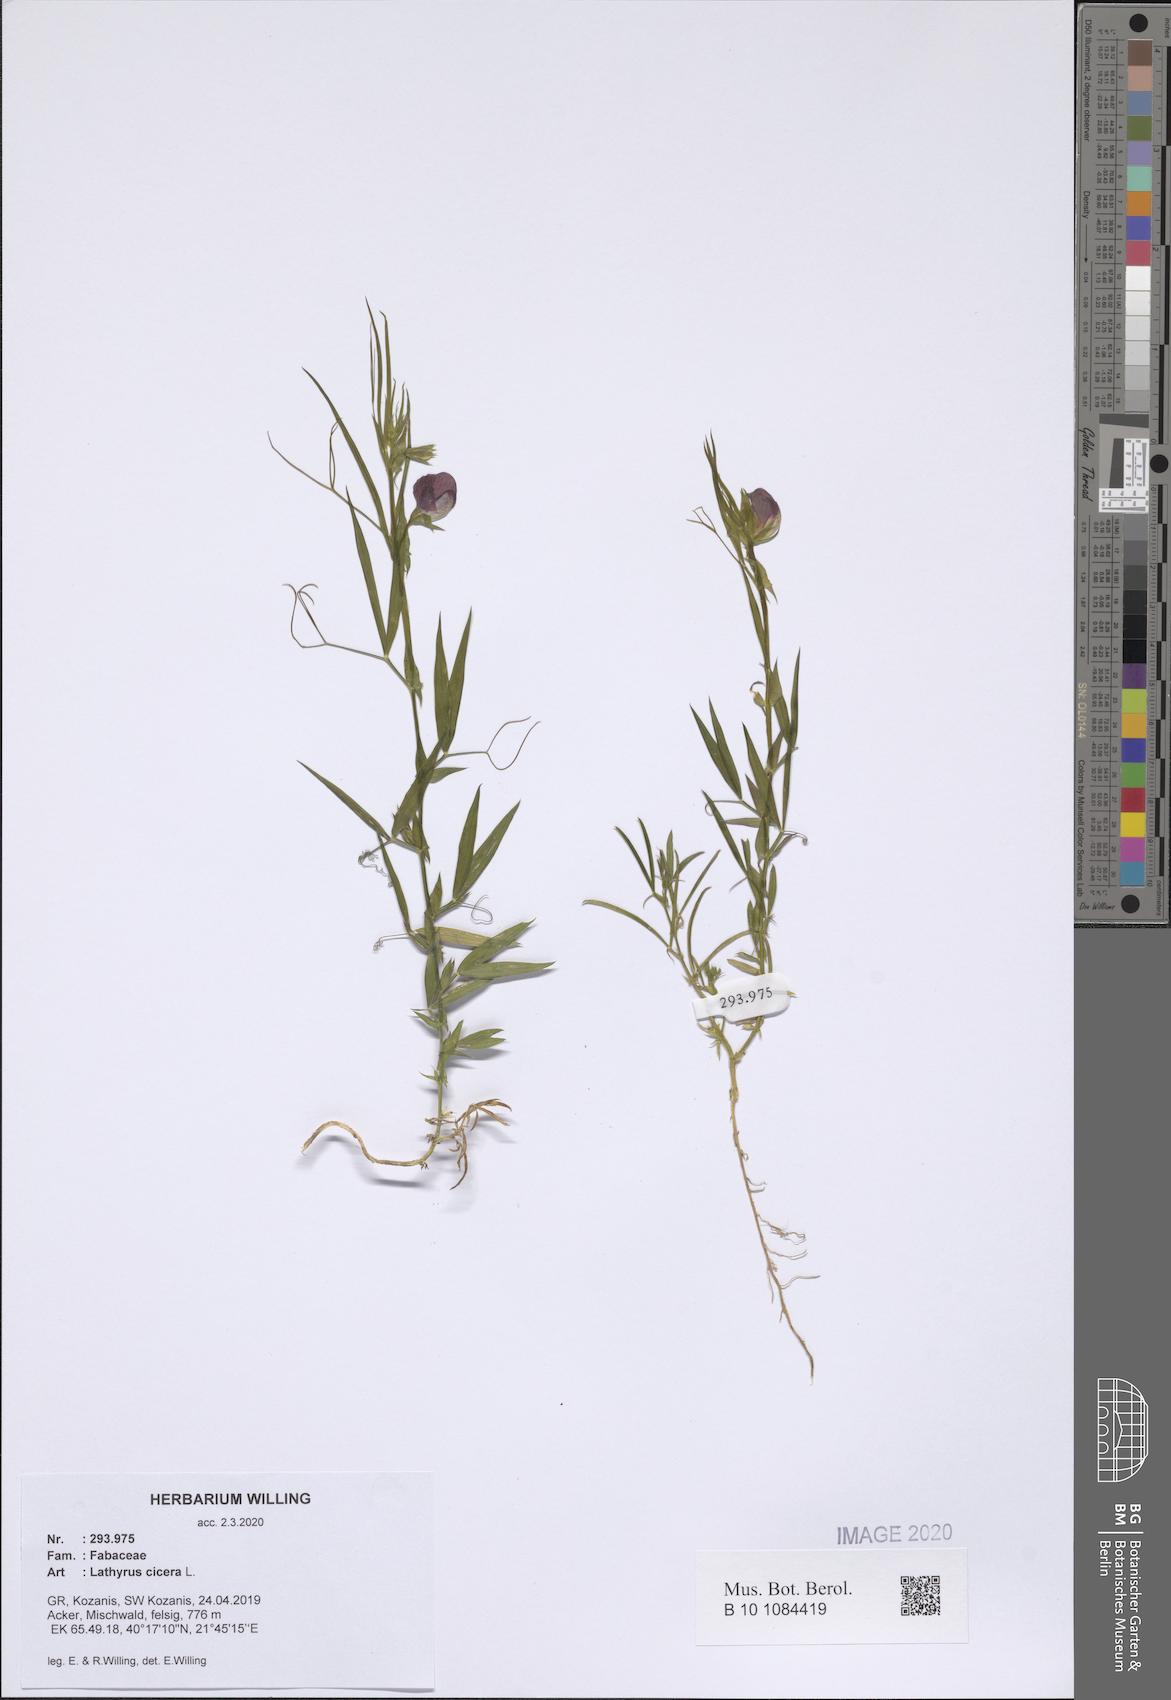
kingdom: Plantae
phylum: Tracheophyta
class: Magnoliopsida
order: Fabales
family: Fabaceae
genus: Lathyrus
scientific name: Lathyrus cicera
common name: Red vetchling
